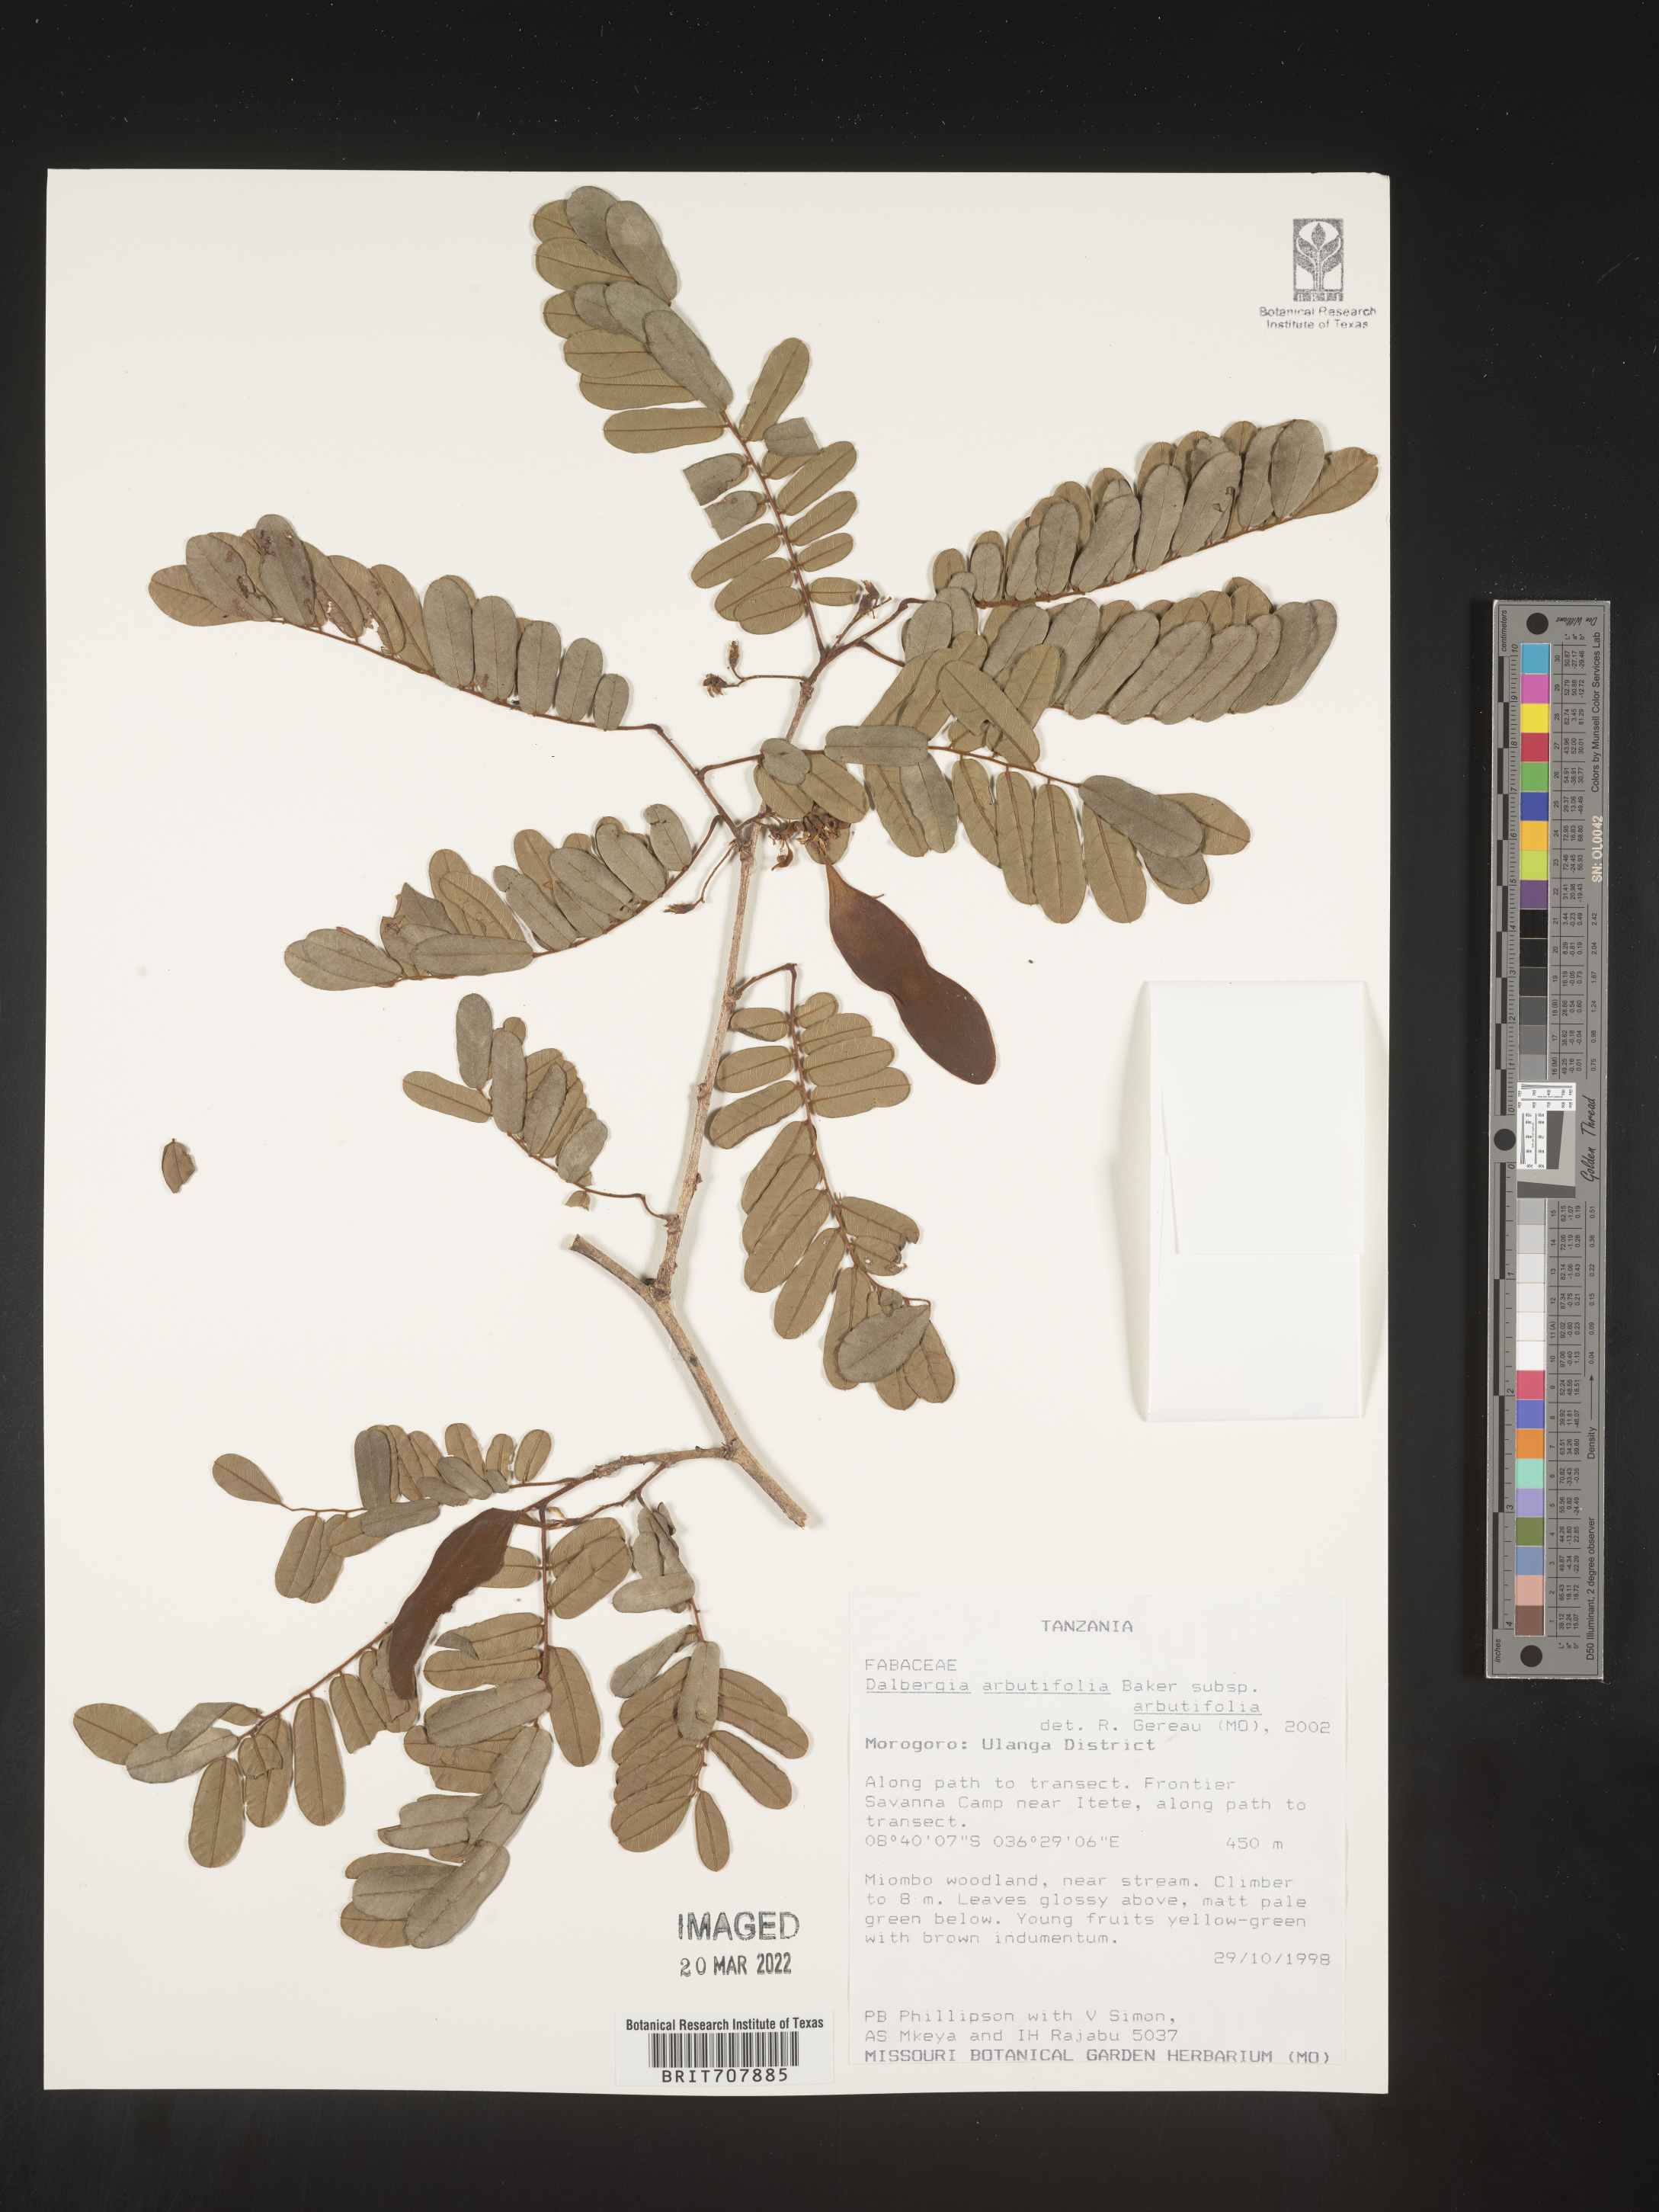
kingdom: Plantae
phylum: Tracheophyta
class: Magnoliopsida
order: Fabales
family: Fabaceae
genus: Dalbergia
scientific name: Dalbergia
